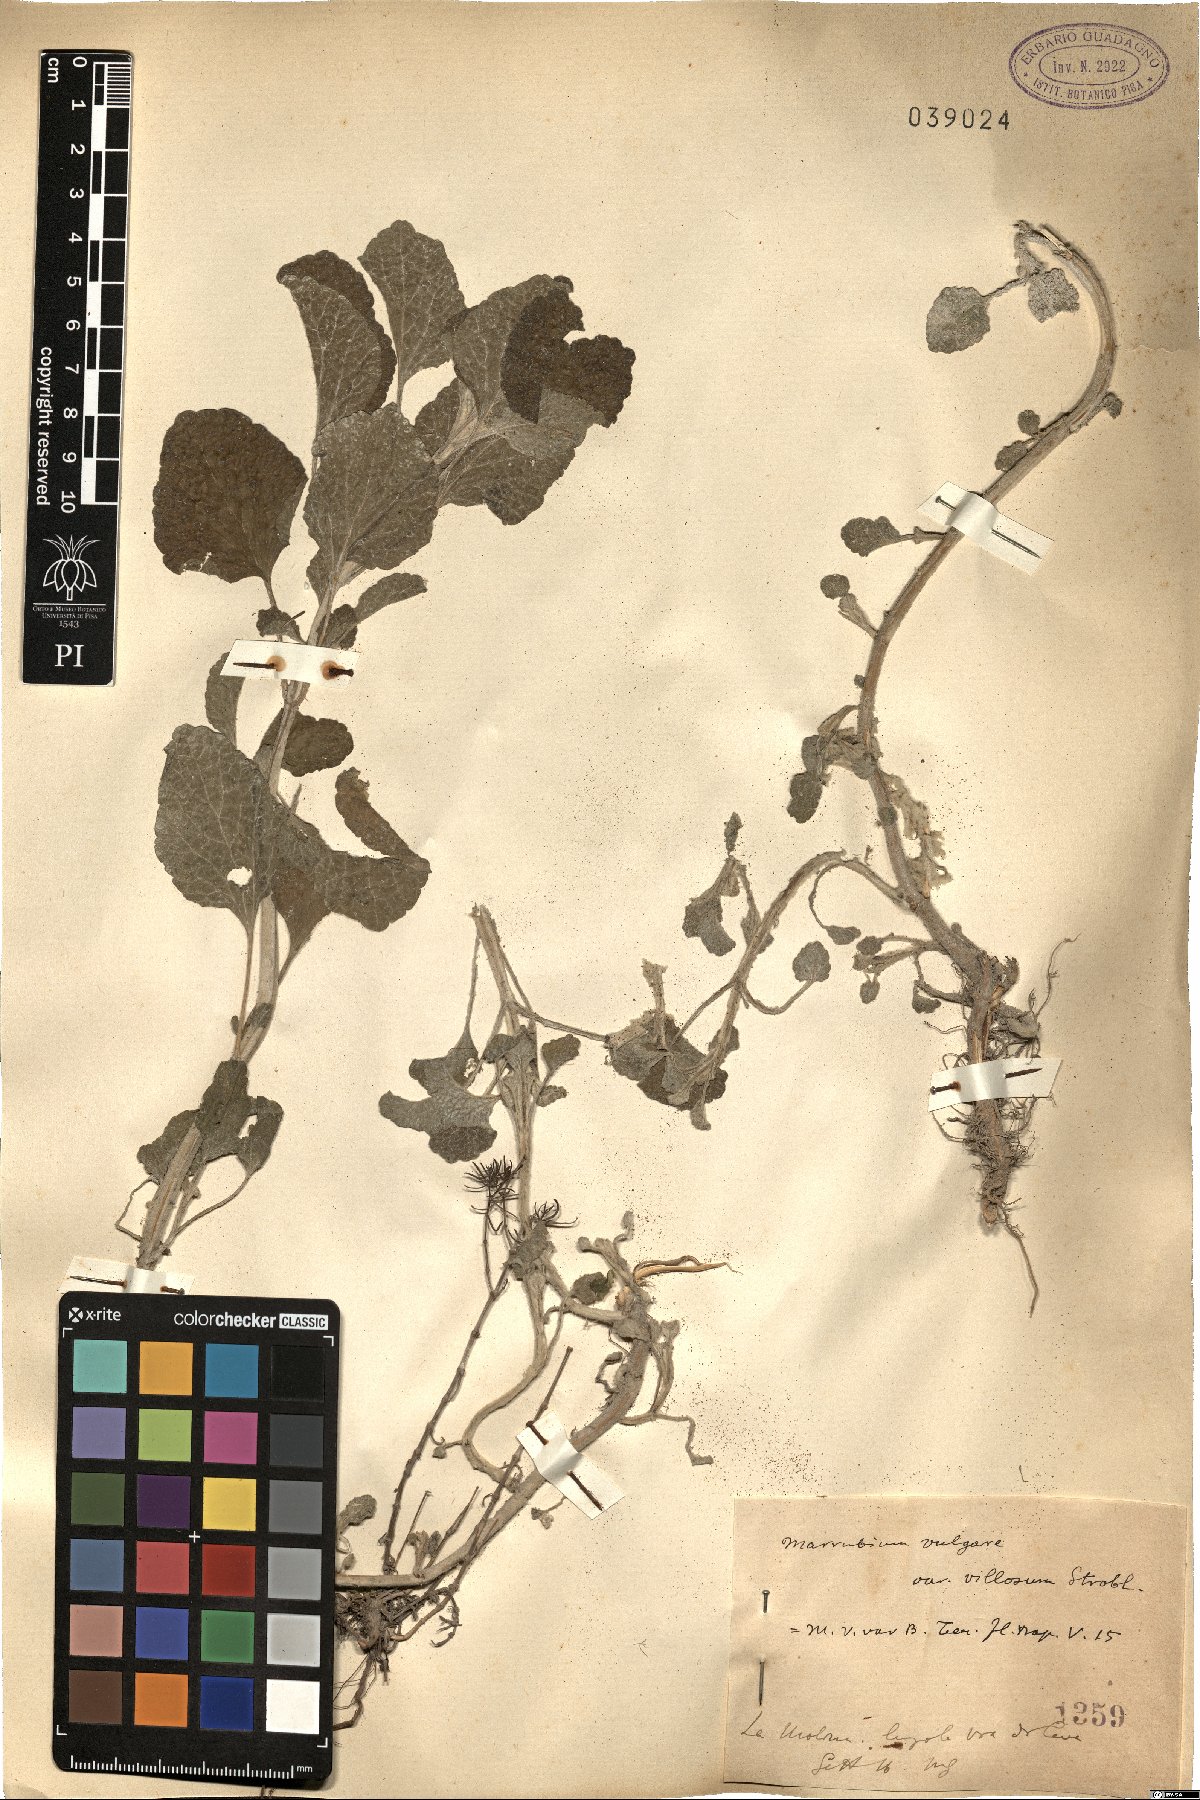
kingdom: Plantae
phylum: Tracheophyta
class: Magnoliopsida
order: Lamiales
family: Lamiaceae
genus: Marrubium
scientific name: Marrubium vulgare
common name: Horehound
